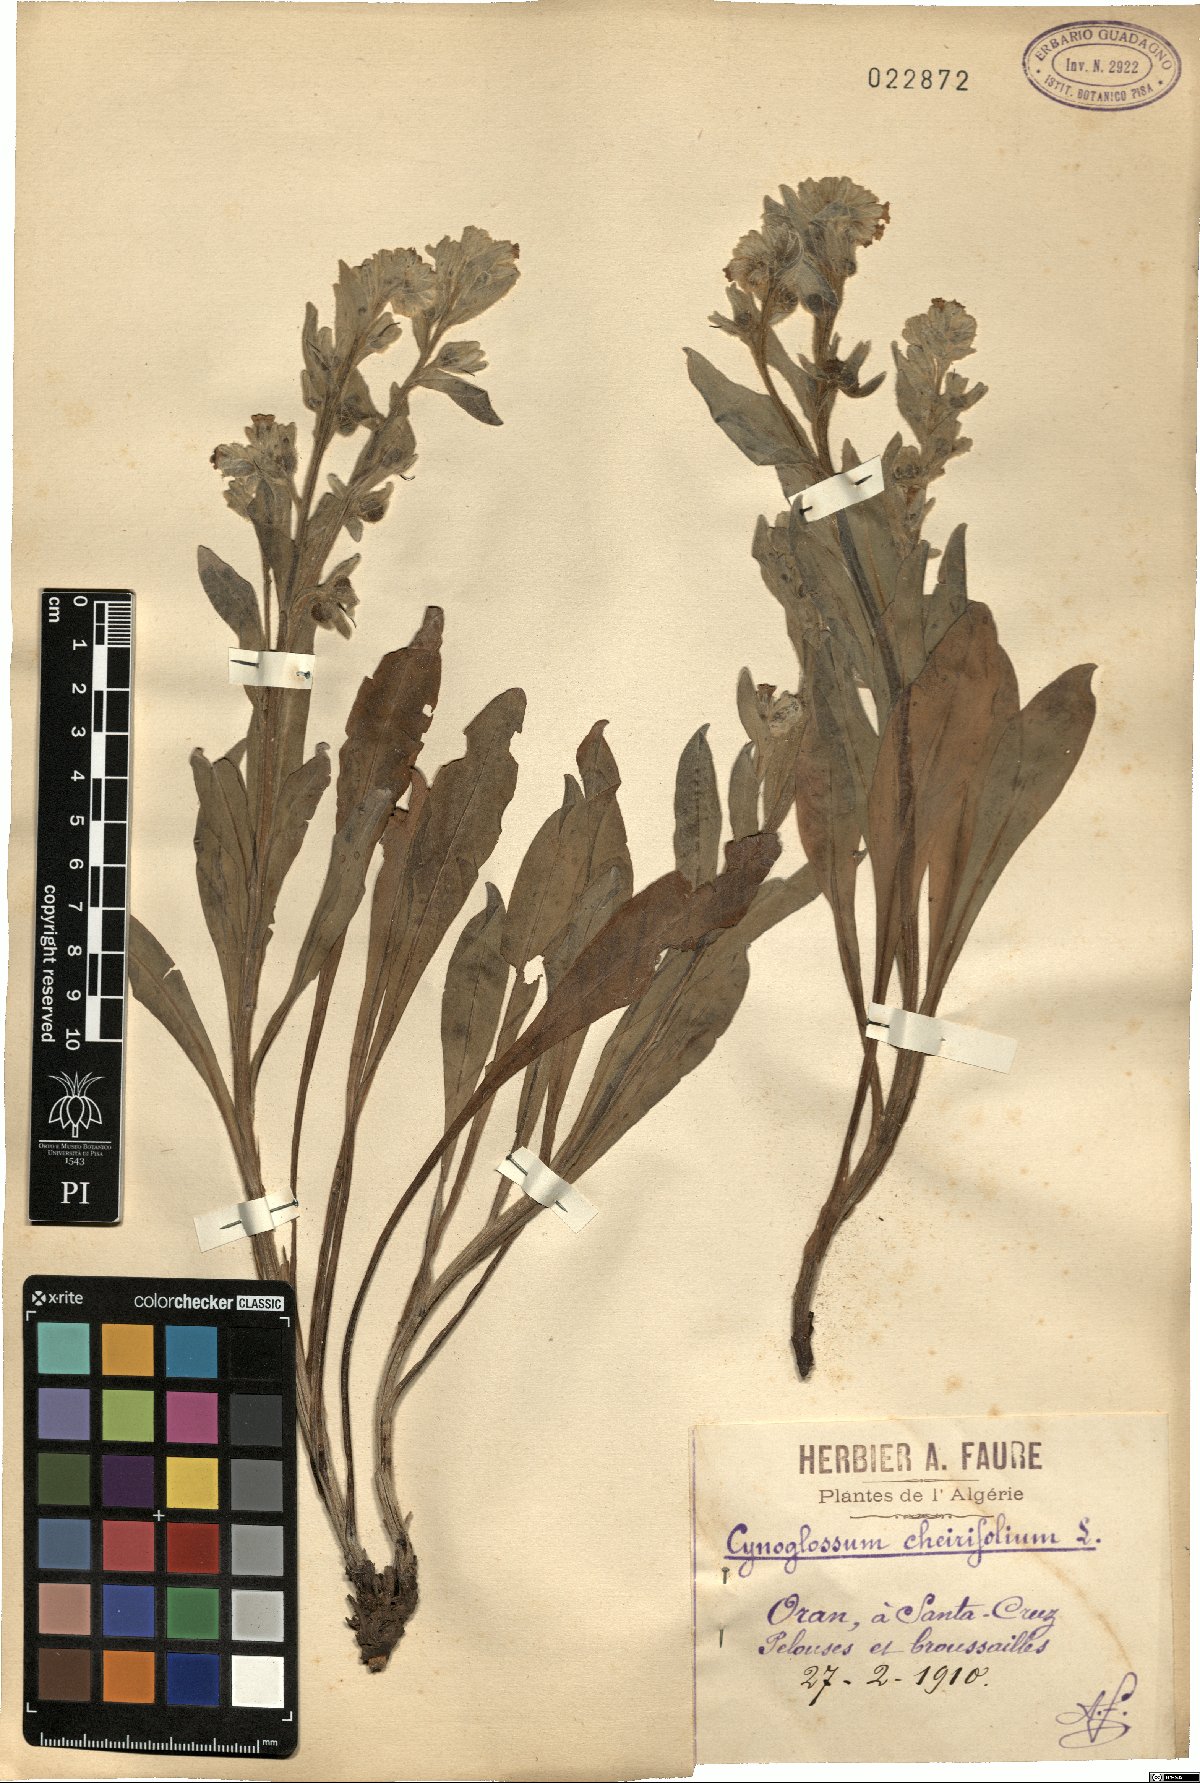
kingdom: Plantae
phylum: Tracheophyta
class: Magnoliopsida
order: Boraginales
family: Boraginaceae
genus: Pardoglossum
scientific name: Pardoglossum cheirifolium
